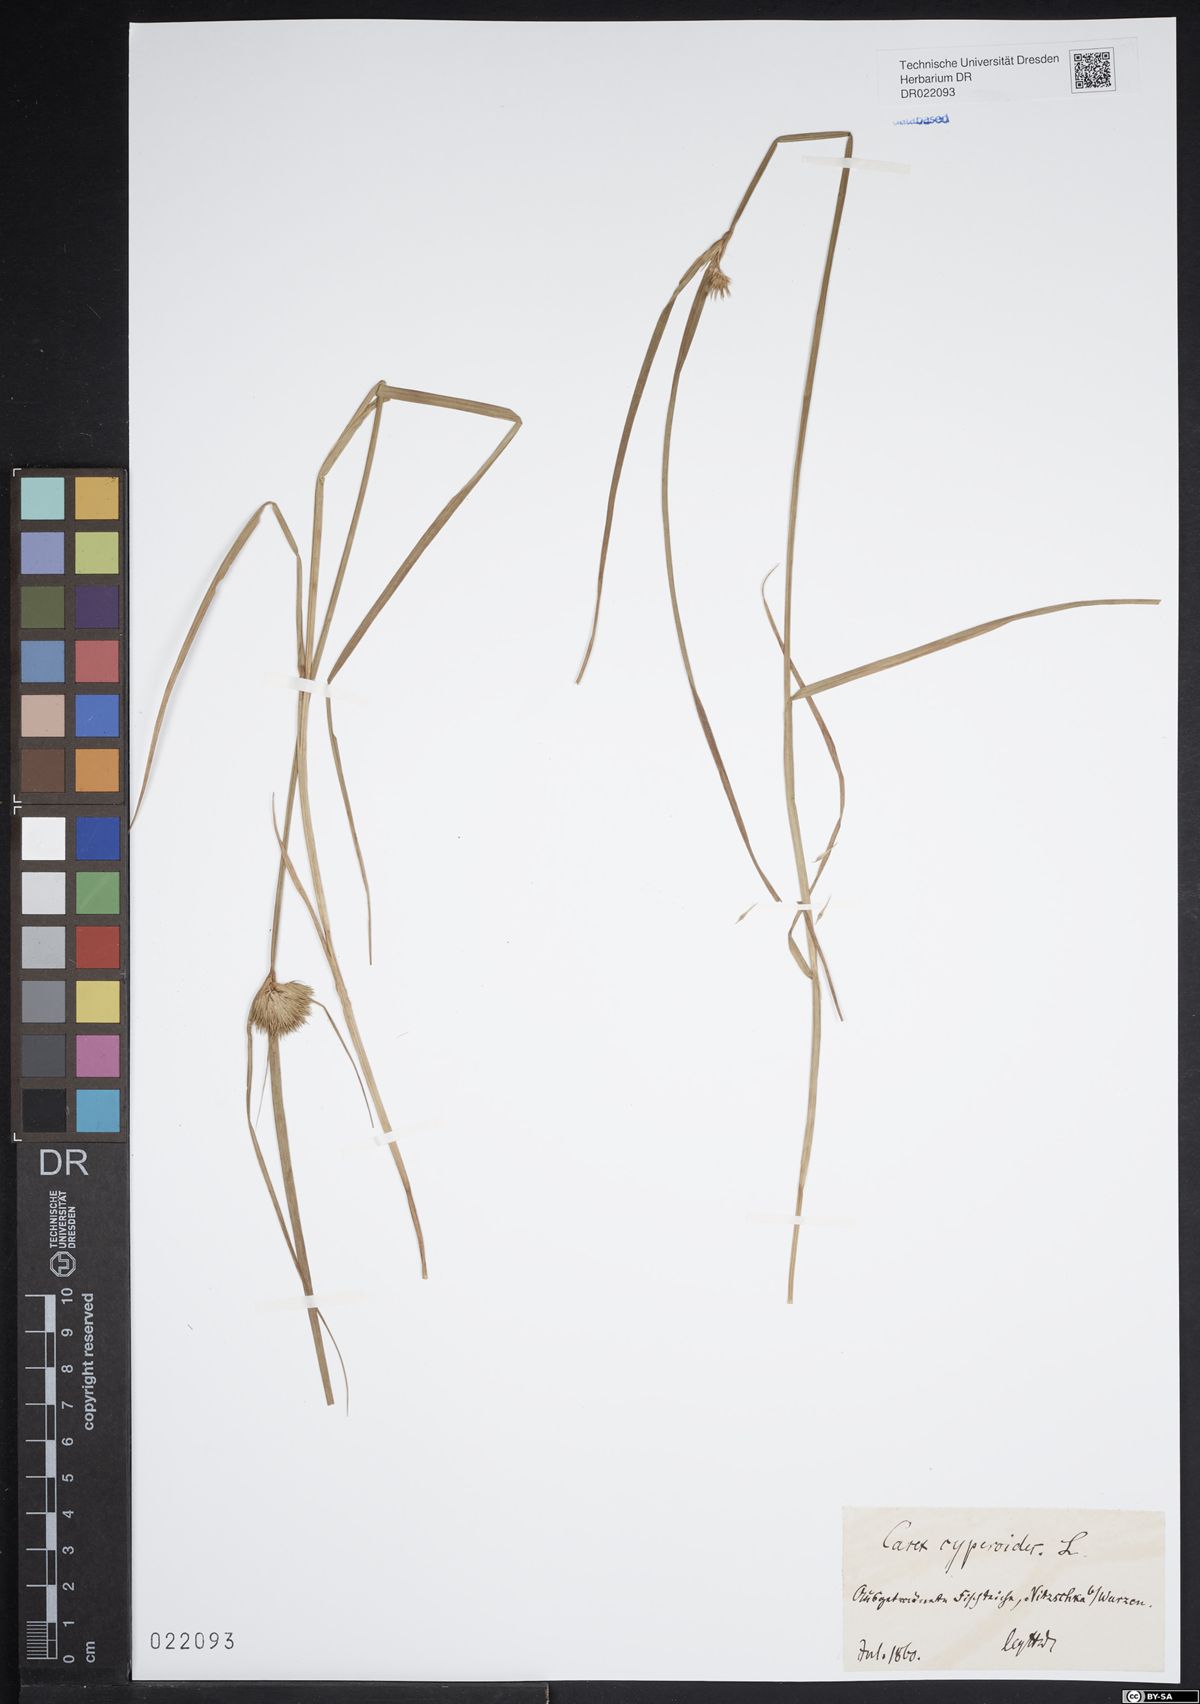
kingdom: Plantae
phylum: Tracheophyta
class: Liliopsida
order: Poales
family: Cyperaceae
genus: Carex
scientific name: Carex bohemica
